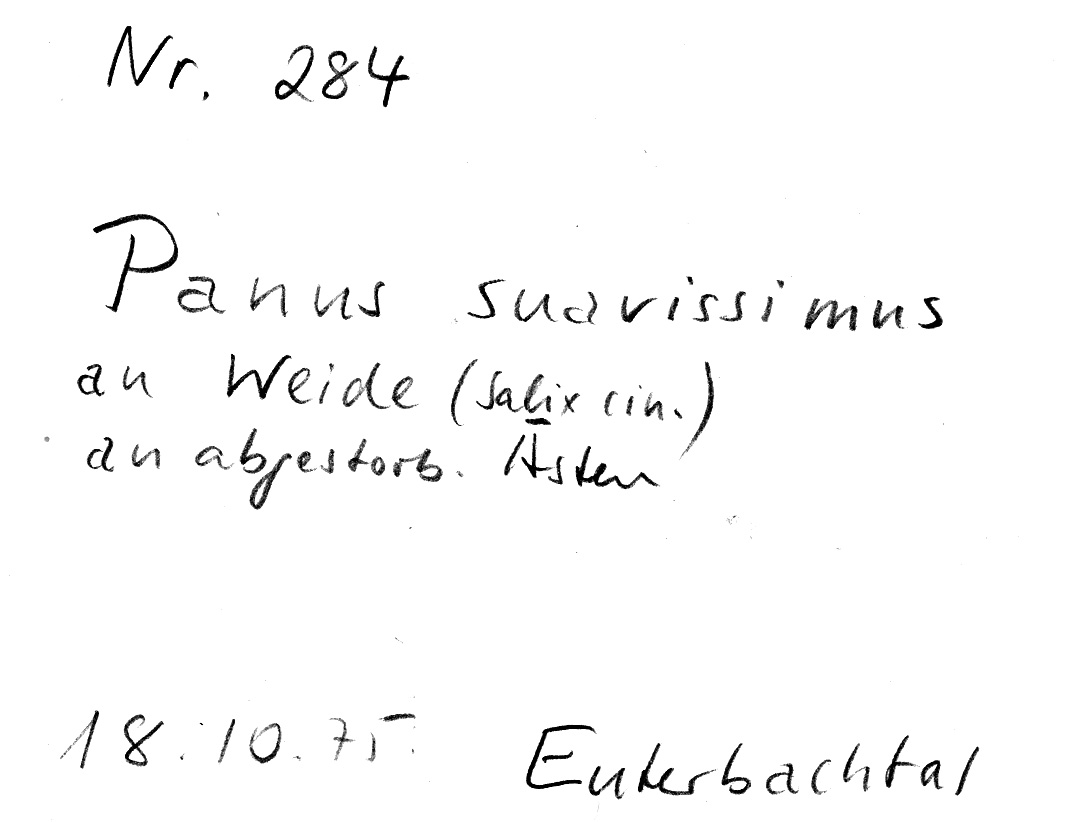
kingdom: Fungi
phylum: Basidiomycota
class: Agaricomycetes
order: Polyporales
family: Polyporaceae
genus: Neofavolus
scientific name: Neofavolus suavissimus
